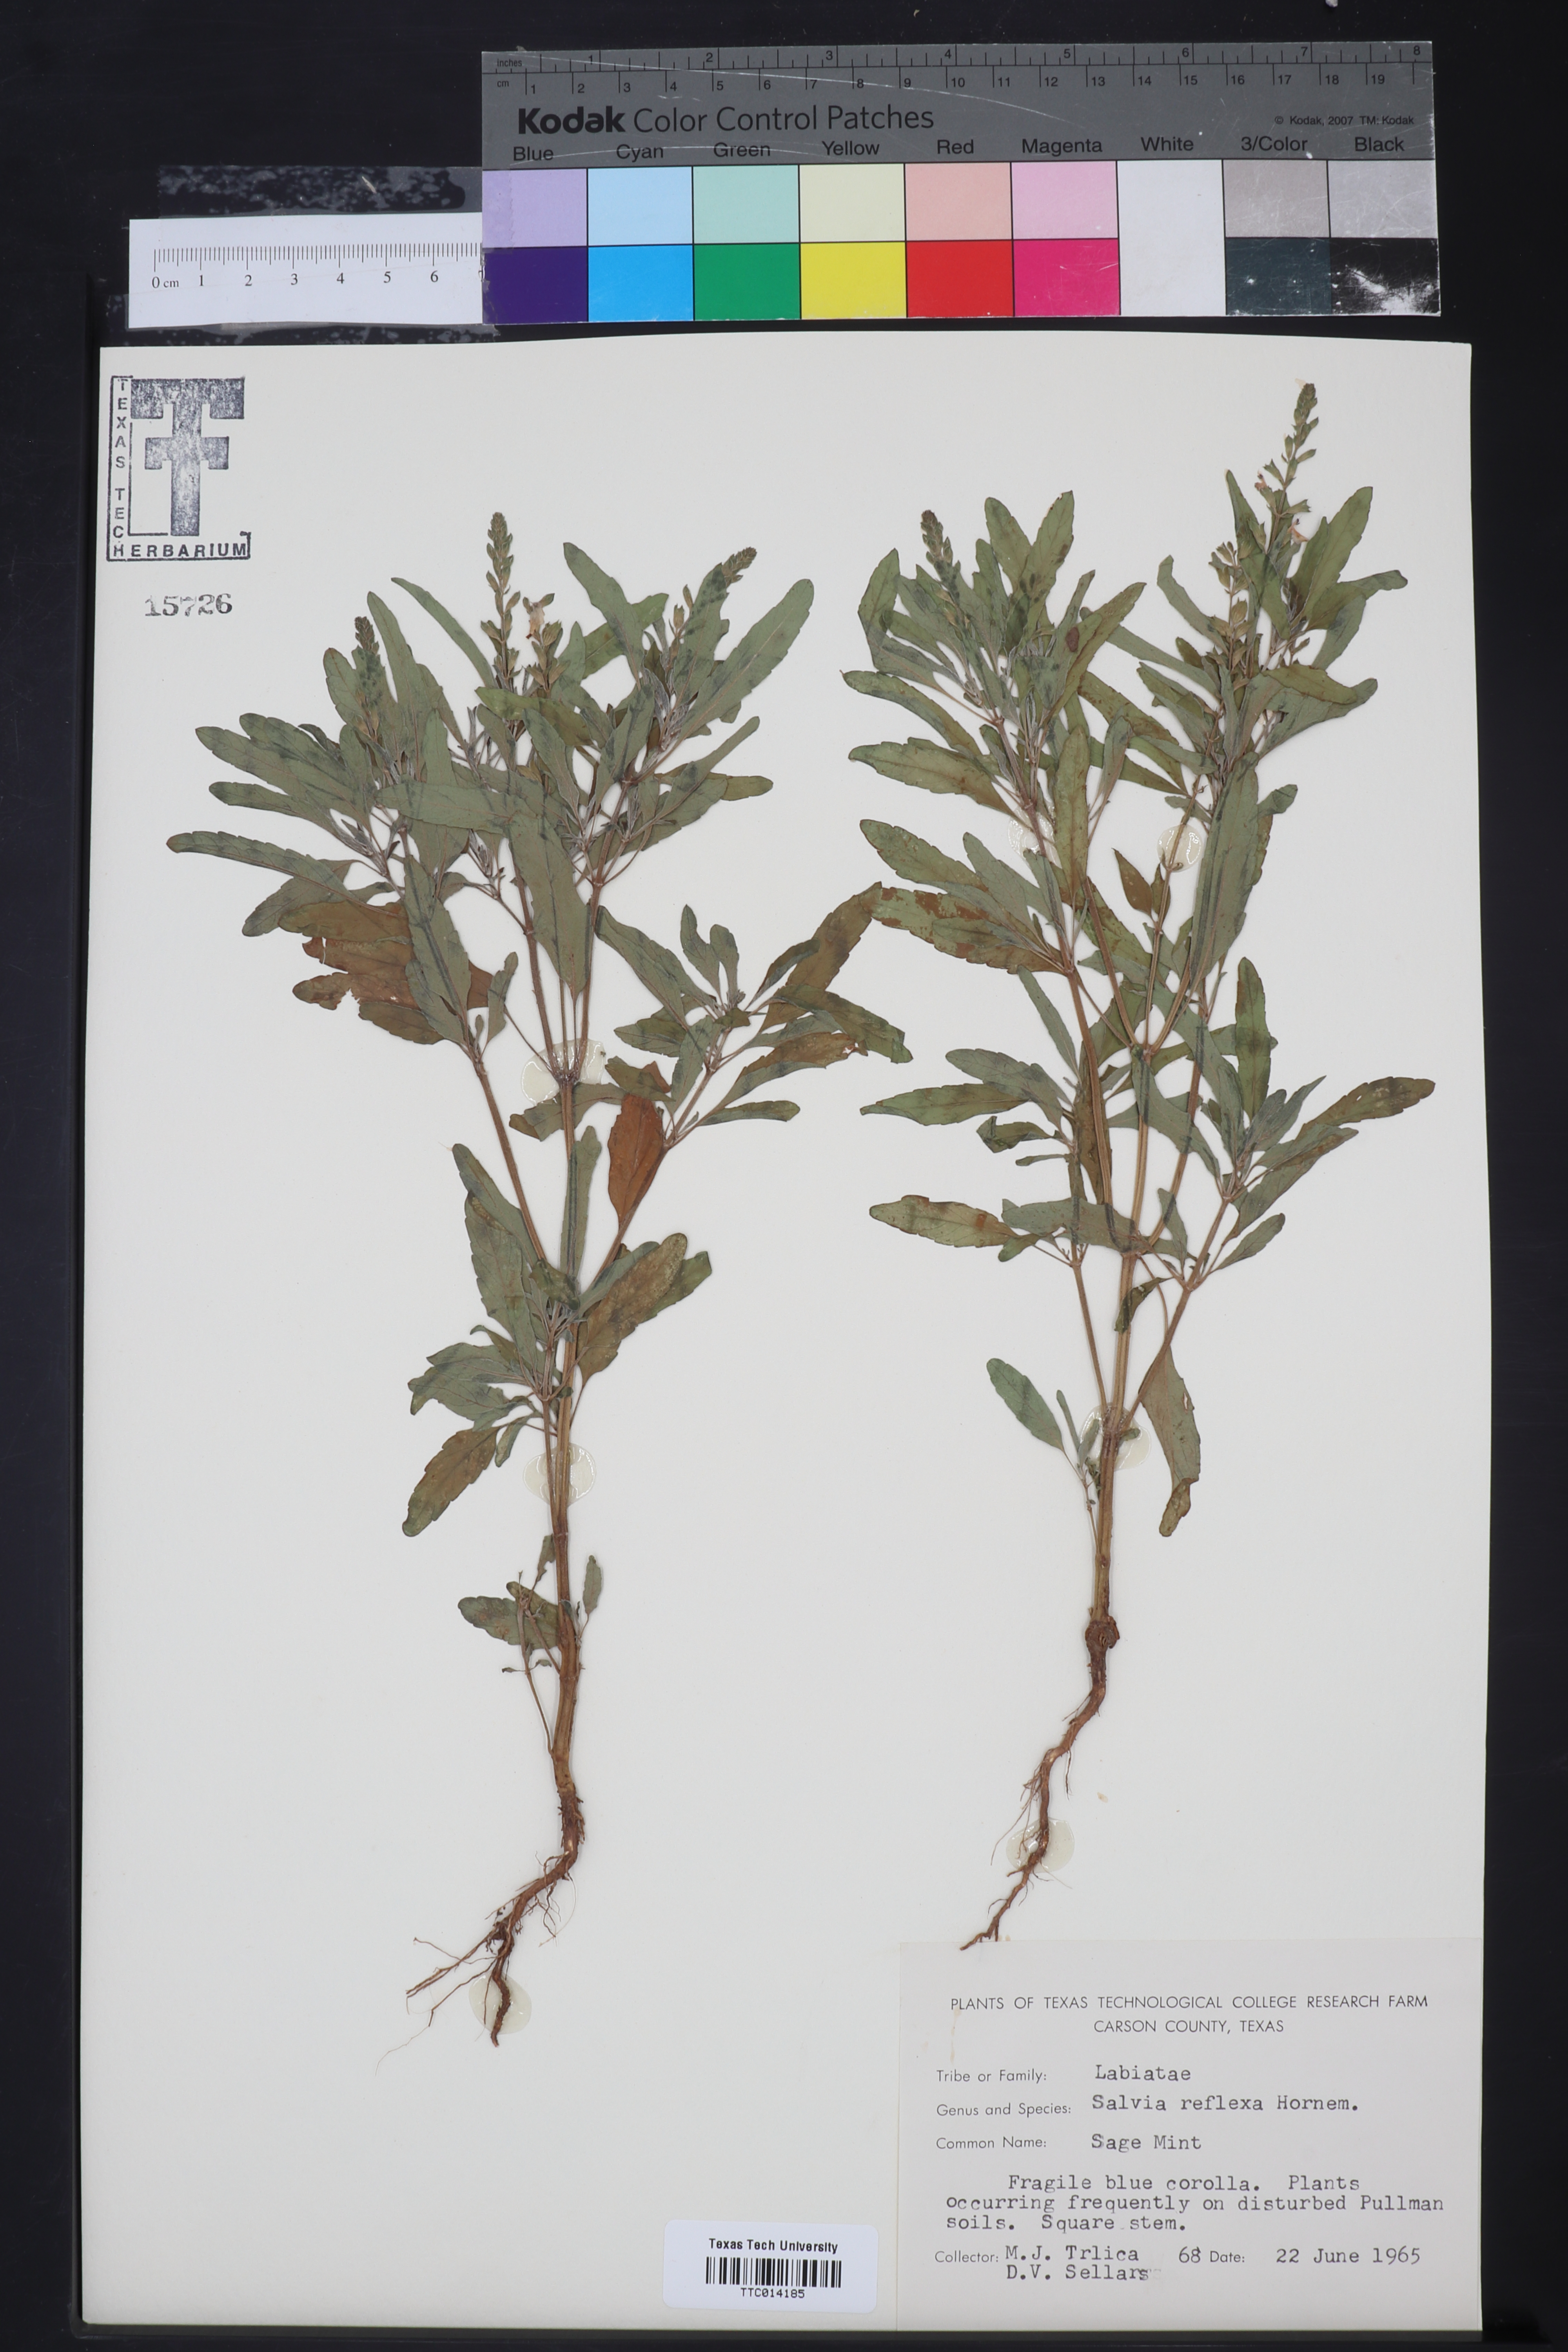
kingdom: Plantae
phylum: Tracheophyta
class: Magnoliopsida
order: Lamiales
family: Lamiaceae
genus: Salvia
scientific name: Salvia reflexa
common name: Mintweed
